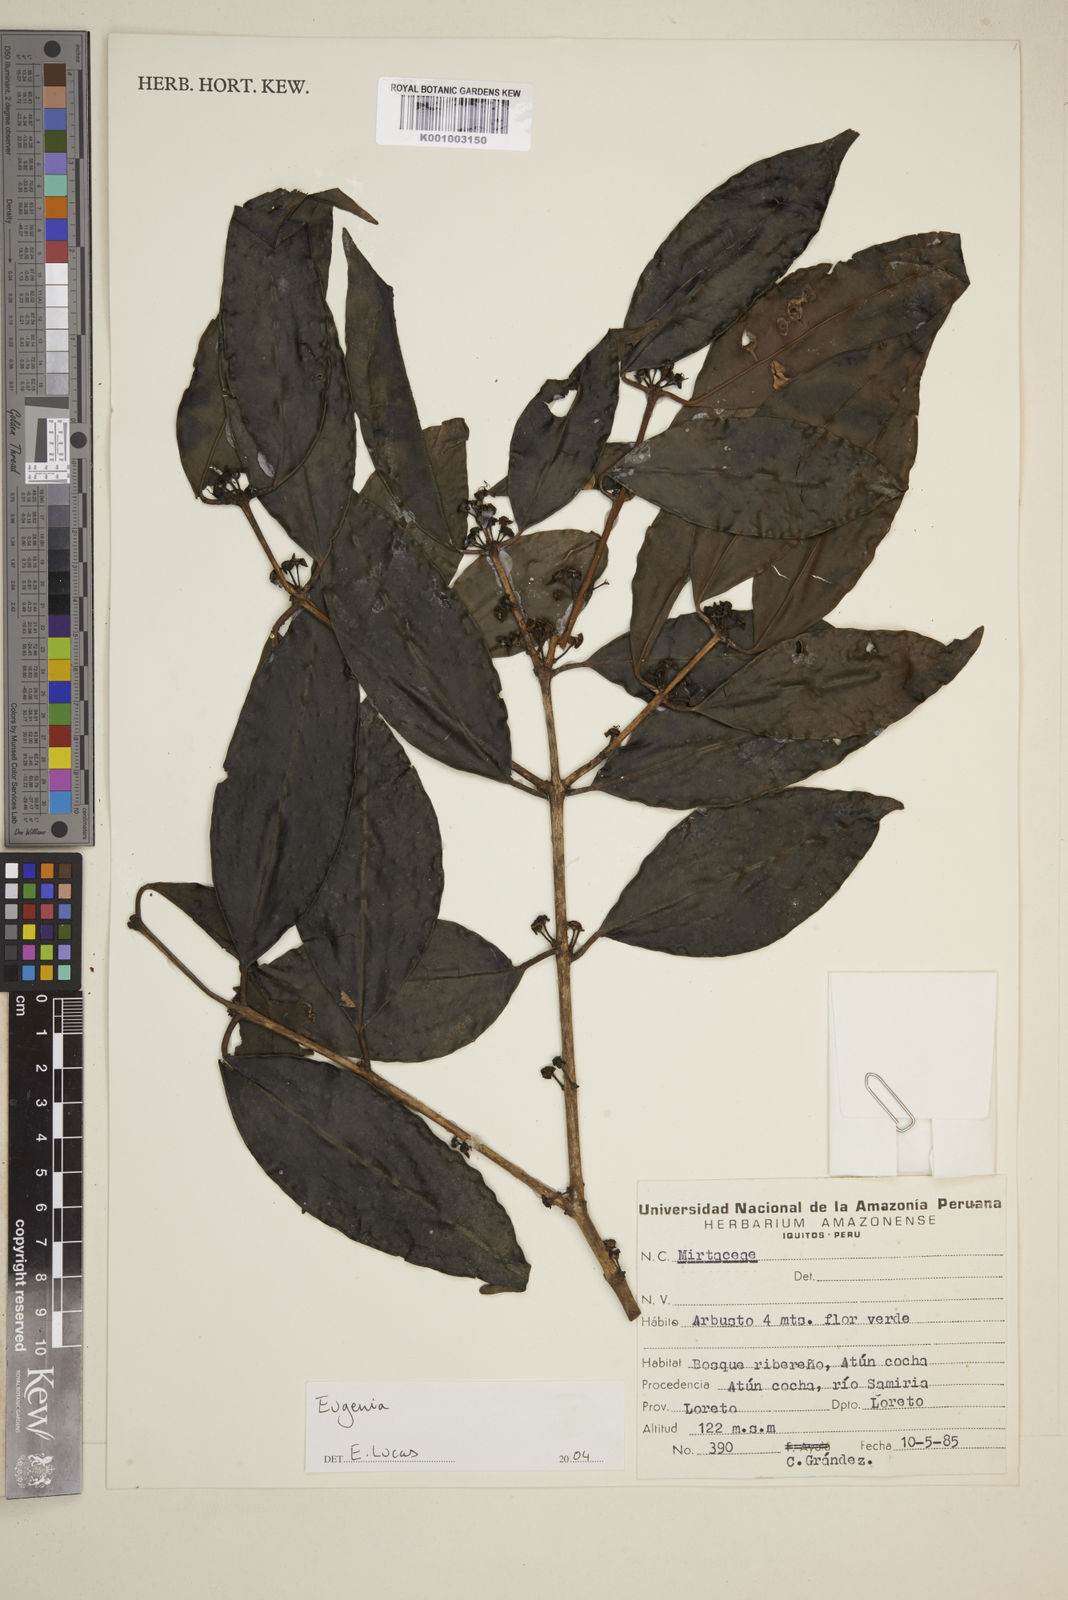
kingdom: Plantae
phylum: Tracheophyta
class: Magnoliopsida
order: Myrtales
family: Myrtaceae
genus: Eugenia
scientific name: Eugenia
